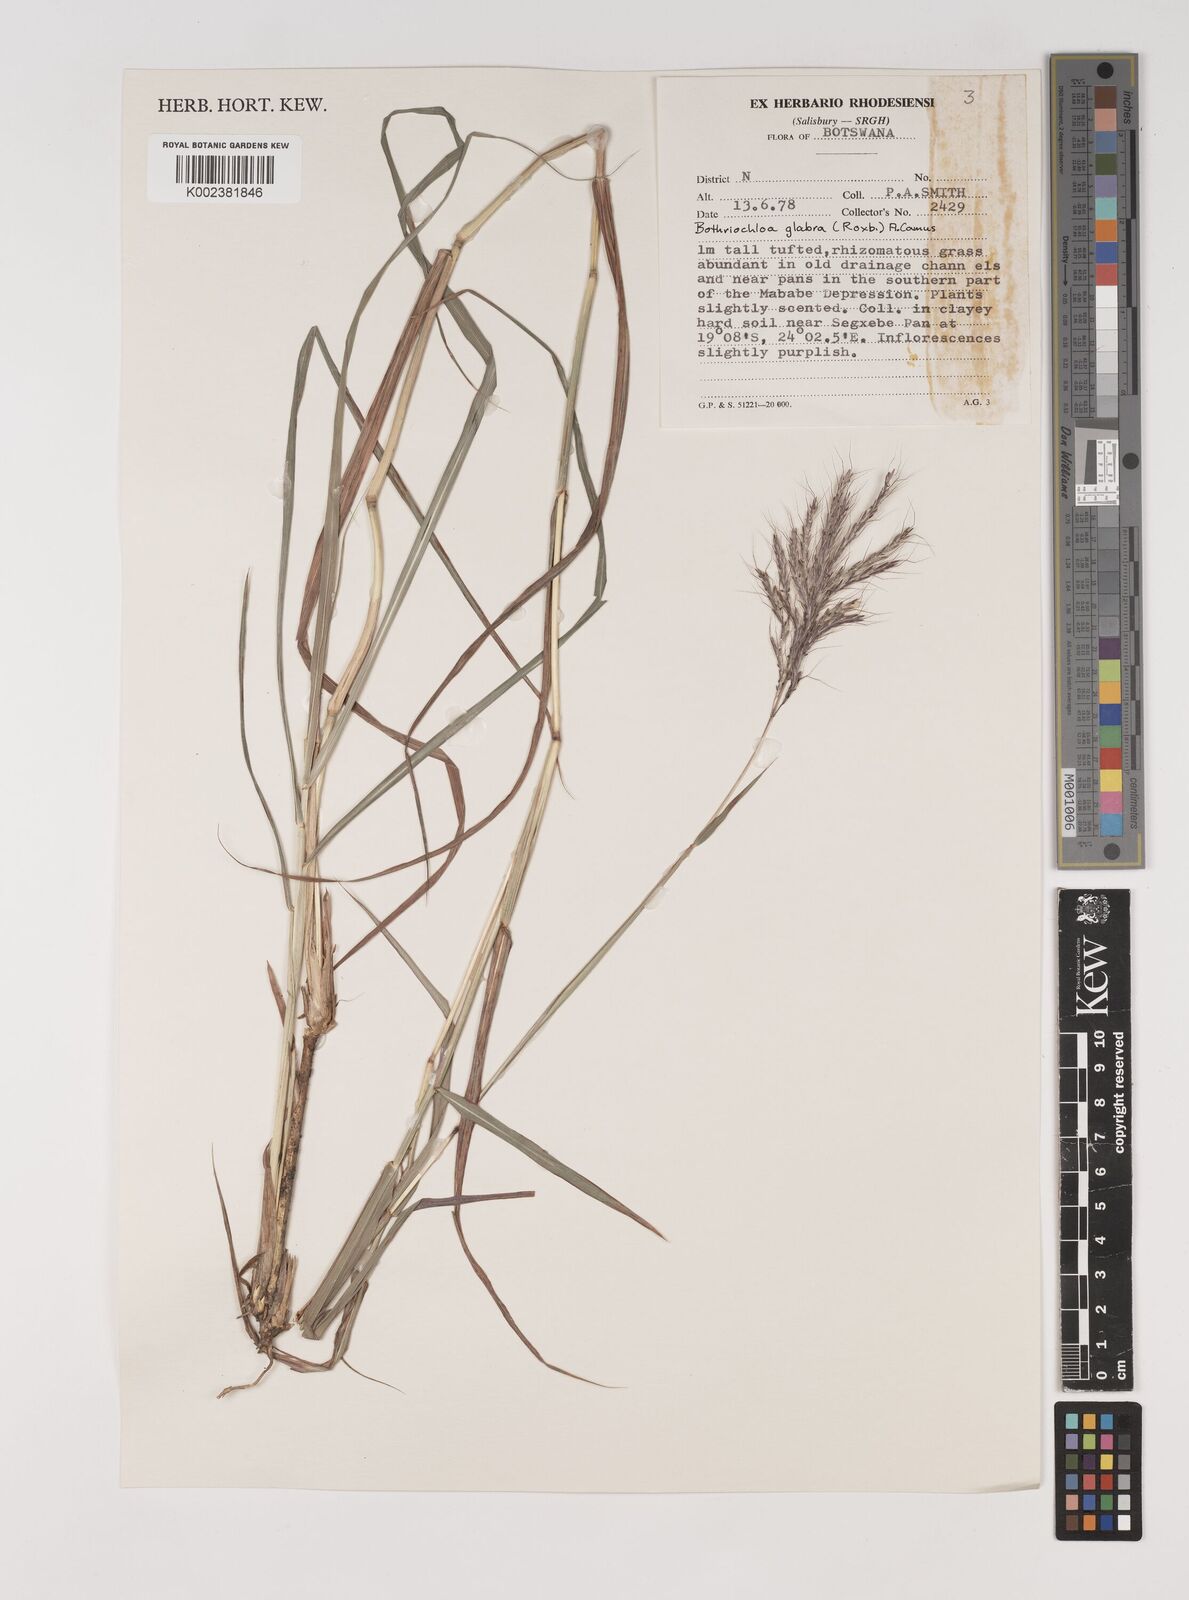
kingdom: Plantae
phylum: Tracheophyta
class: Liliopsida
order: Poales
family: Poaceae
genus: Bothriochloa
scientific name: Bothriochloa bladhii
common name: Caucasian bluestem
